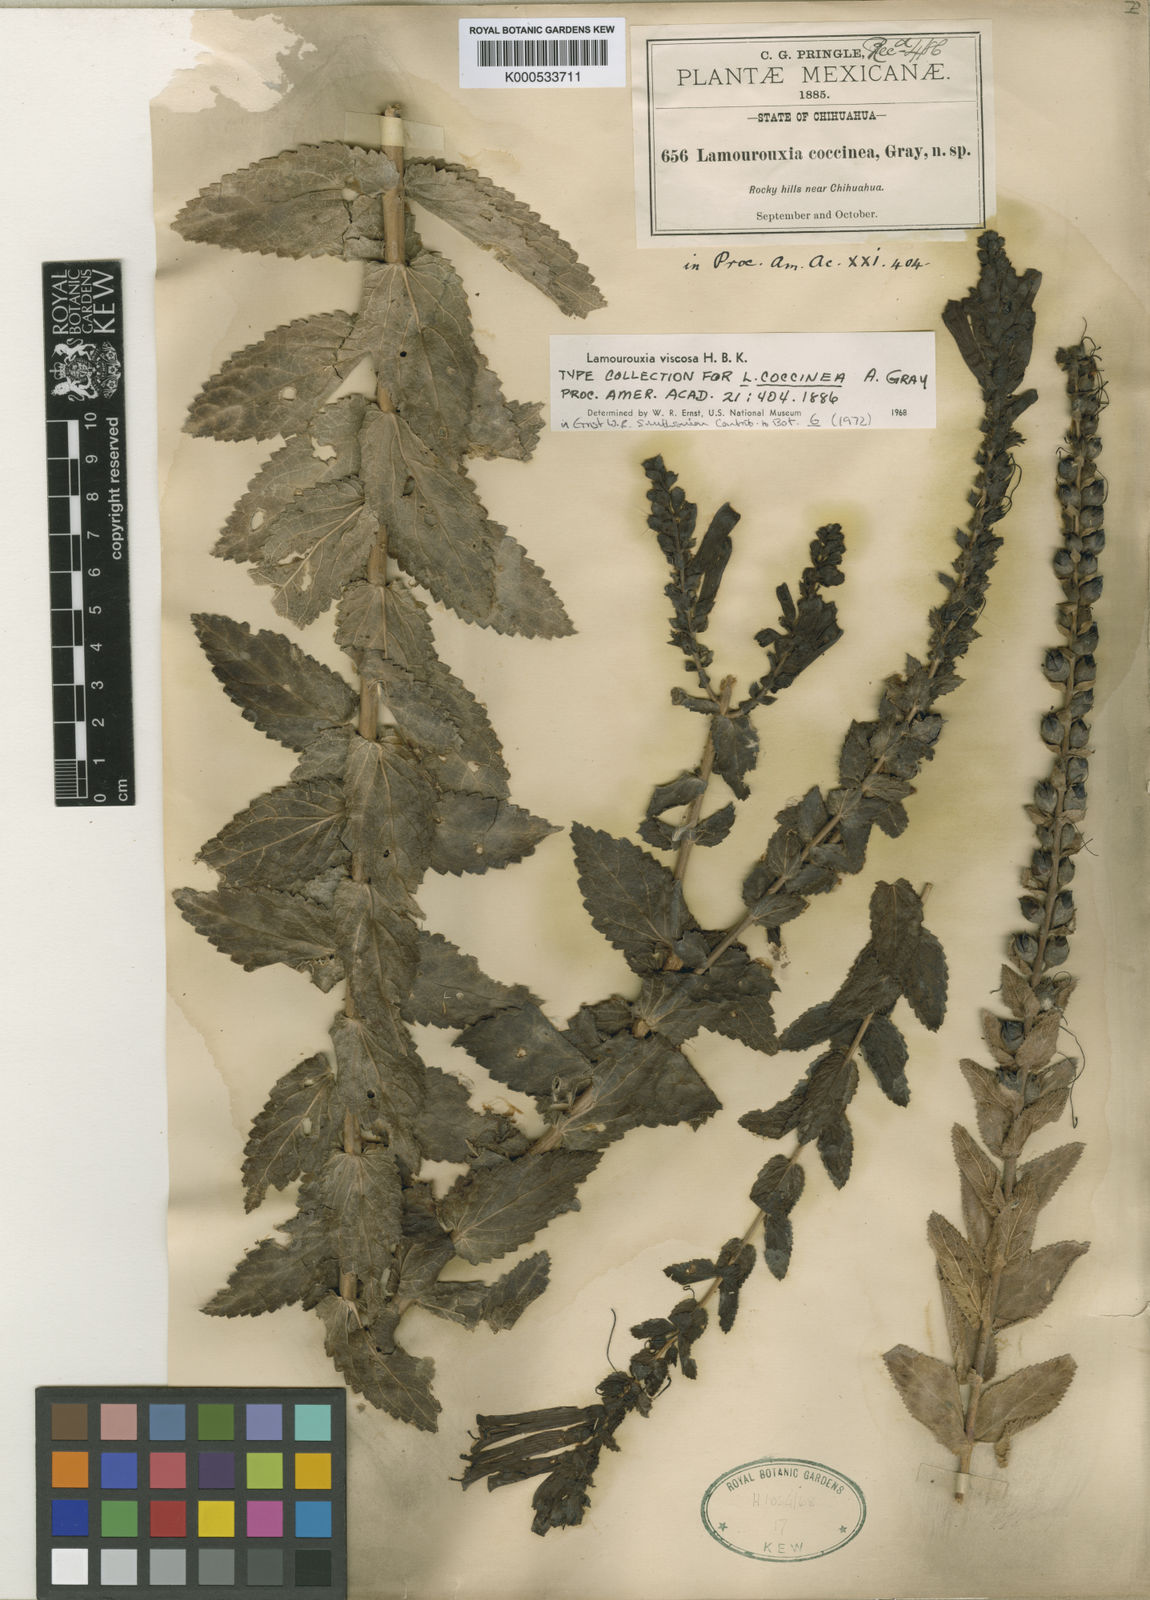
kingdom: Plantae
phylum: Tracheophyta
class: Magnoliopsida
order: Lamiales
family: Orobanchaceae
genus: Lamourouxia
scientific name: Lamourouxia viscosa
